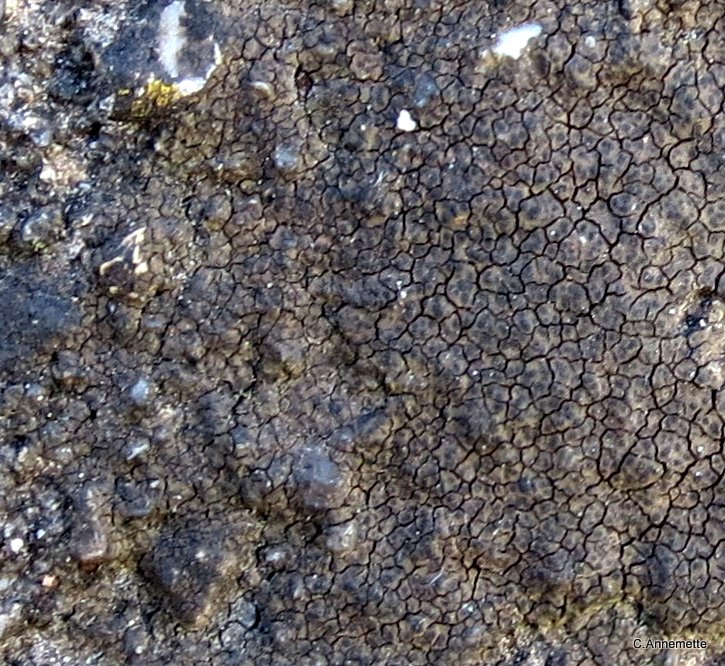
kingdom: Fungi
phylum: Ascomycota
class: Eurotiomycetes
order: Verrucariales
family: Verrucariaceae
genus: Verrucaria
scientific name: Verrucaria nigrescens
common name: sortbrun vortelav
